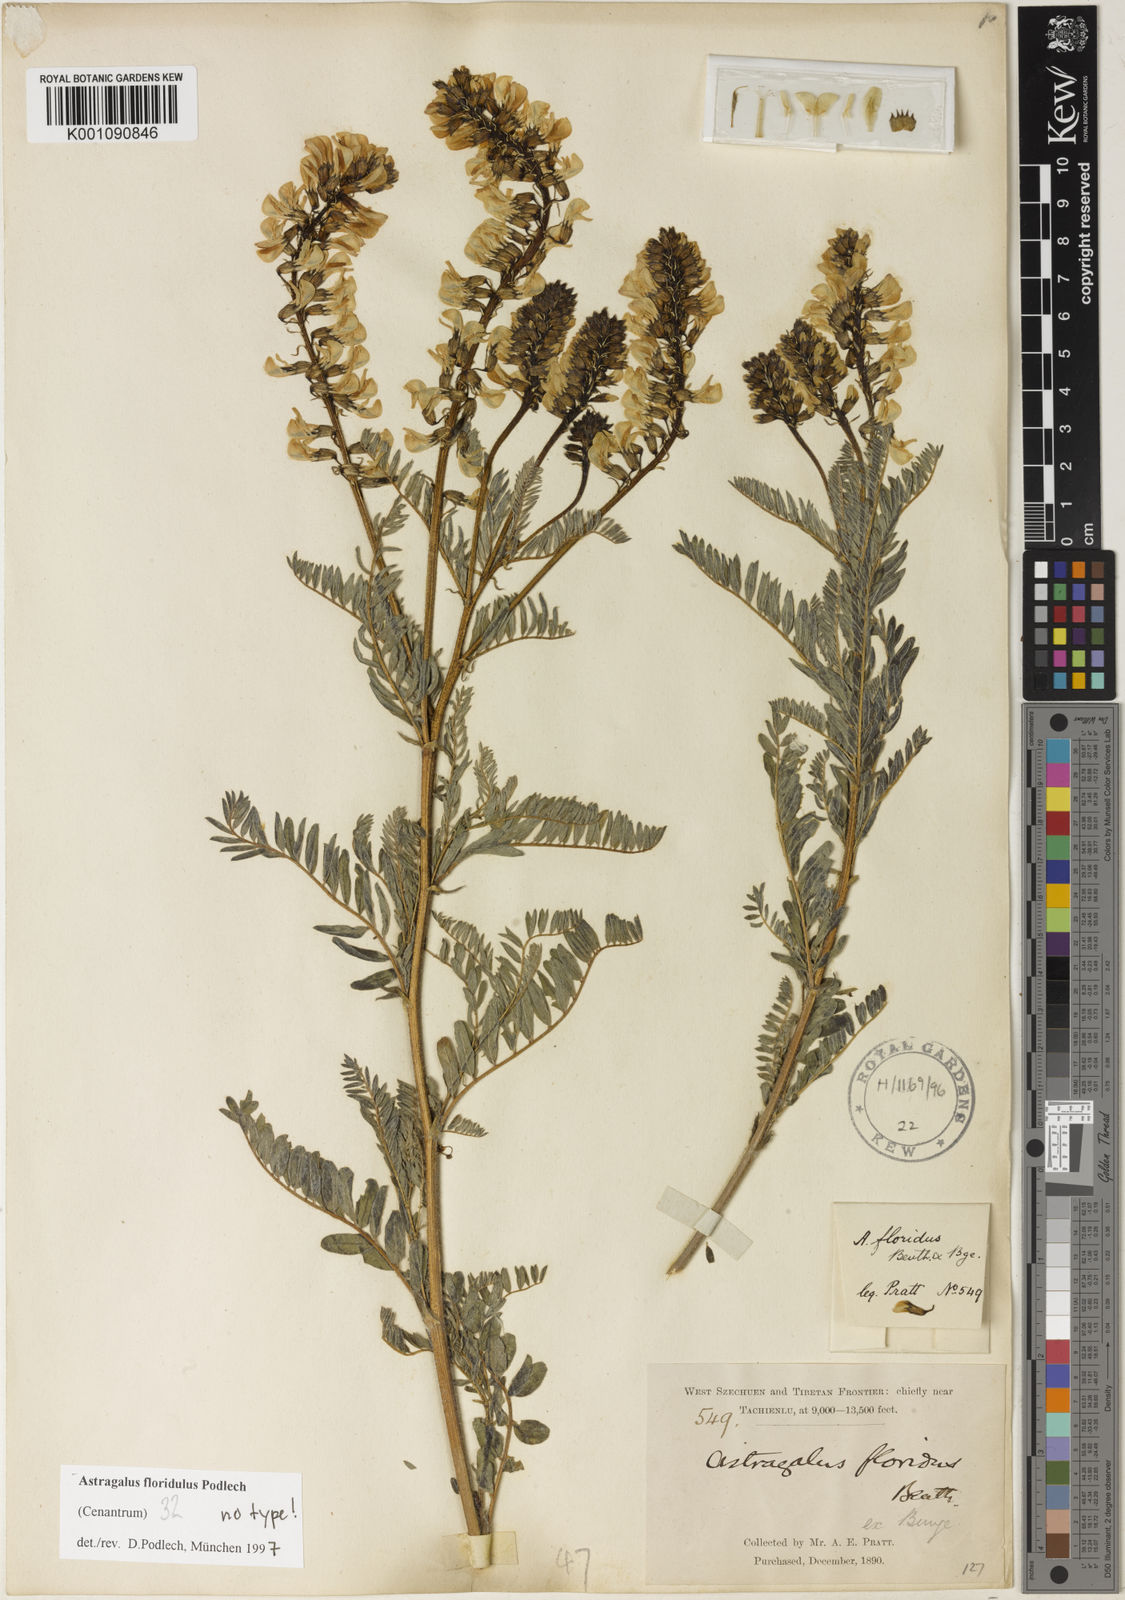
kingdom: Plantae
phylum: Tracheophyta
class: Magnoliopsida
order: Fabales
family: Fabaceae
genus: Astragalus
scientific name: Astragalus
